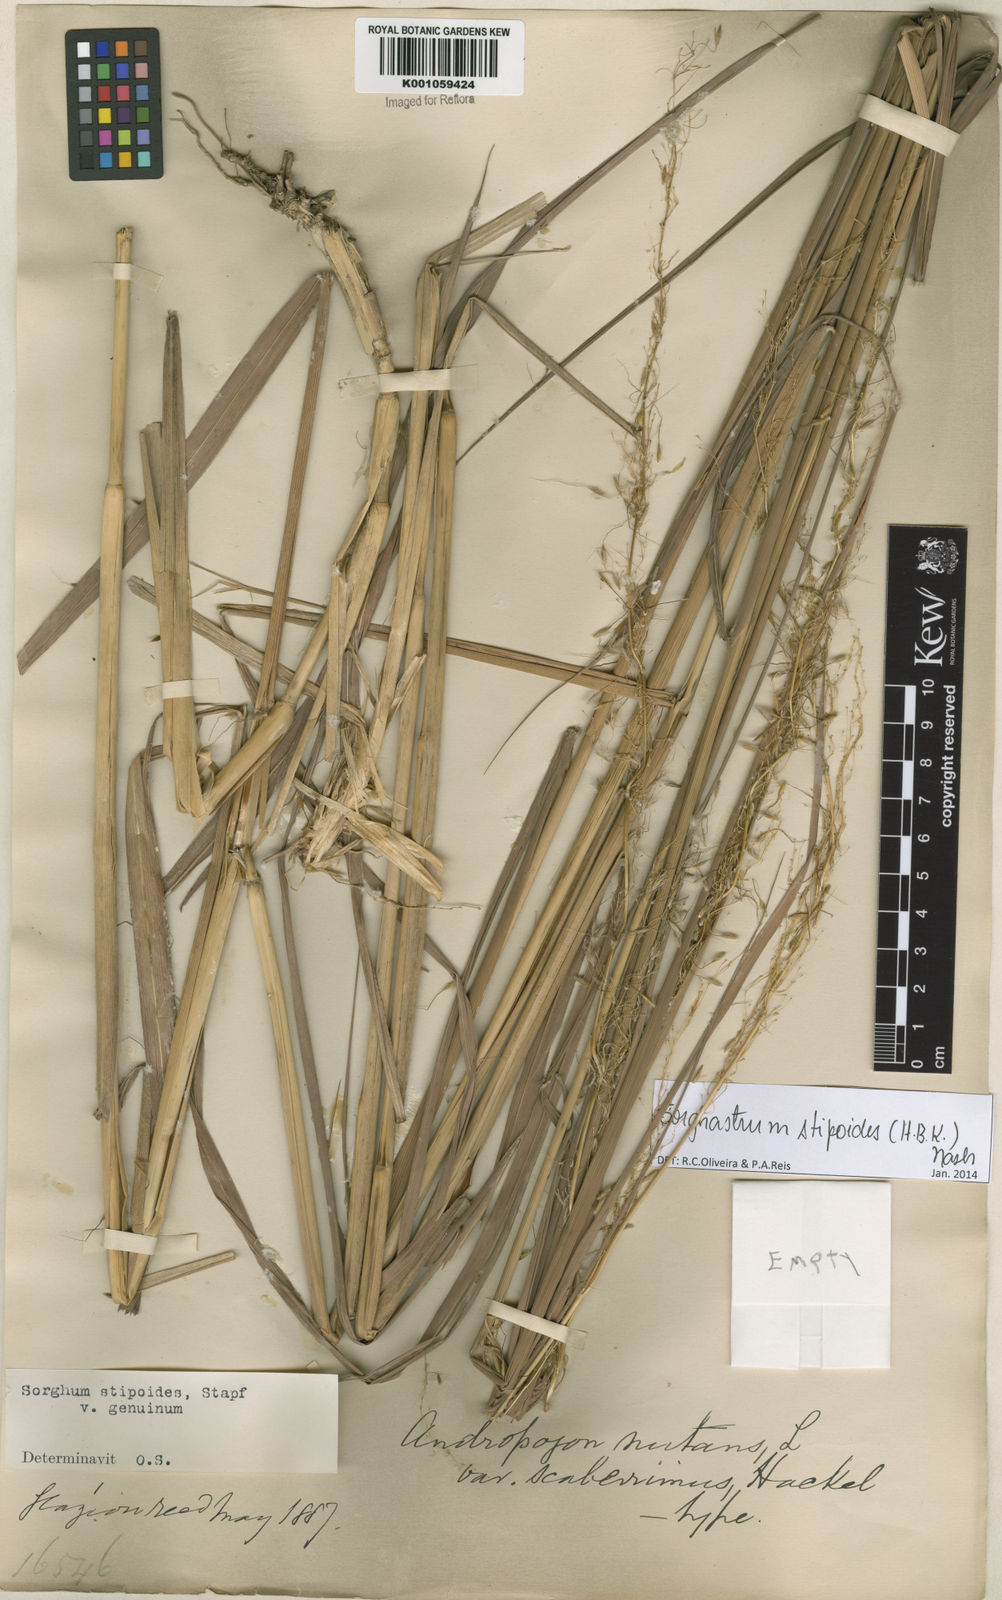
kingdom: Plantae
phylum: Tracheophyta
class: Liliopsida
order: Poales
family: Poaceae
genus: Sorghastrum
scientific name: Sorghastrum stipoides
